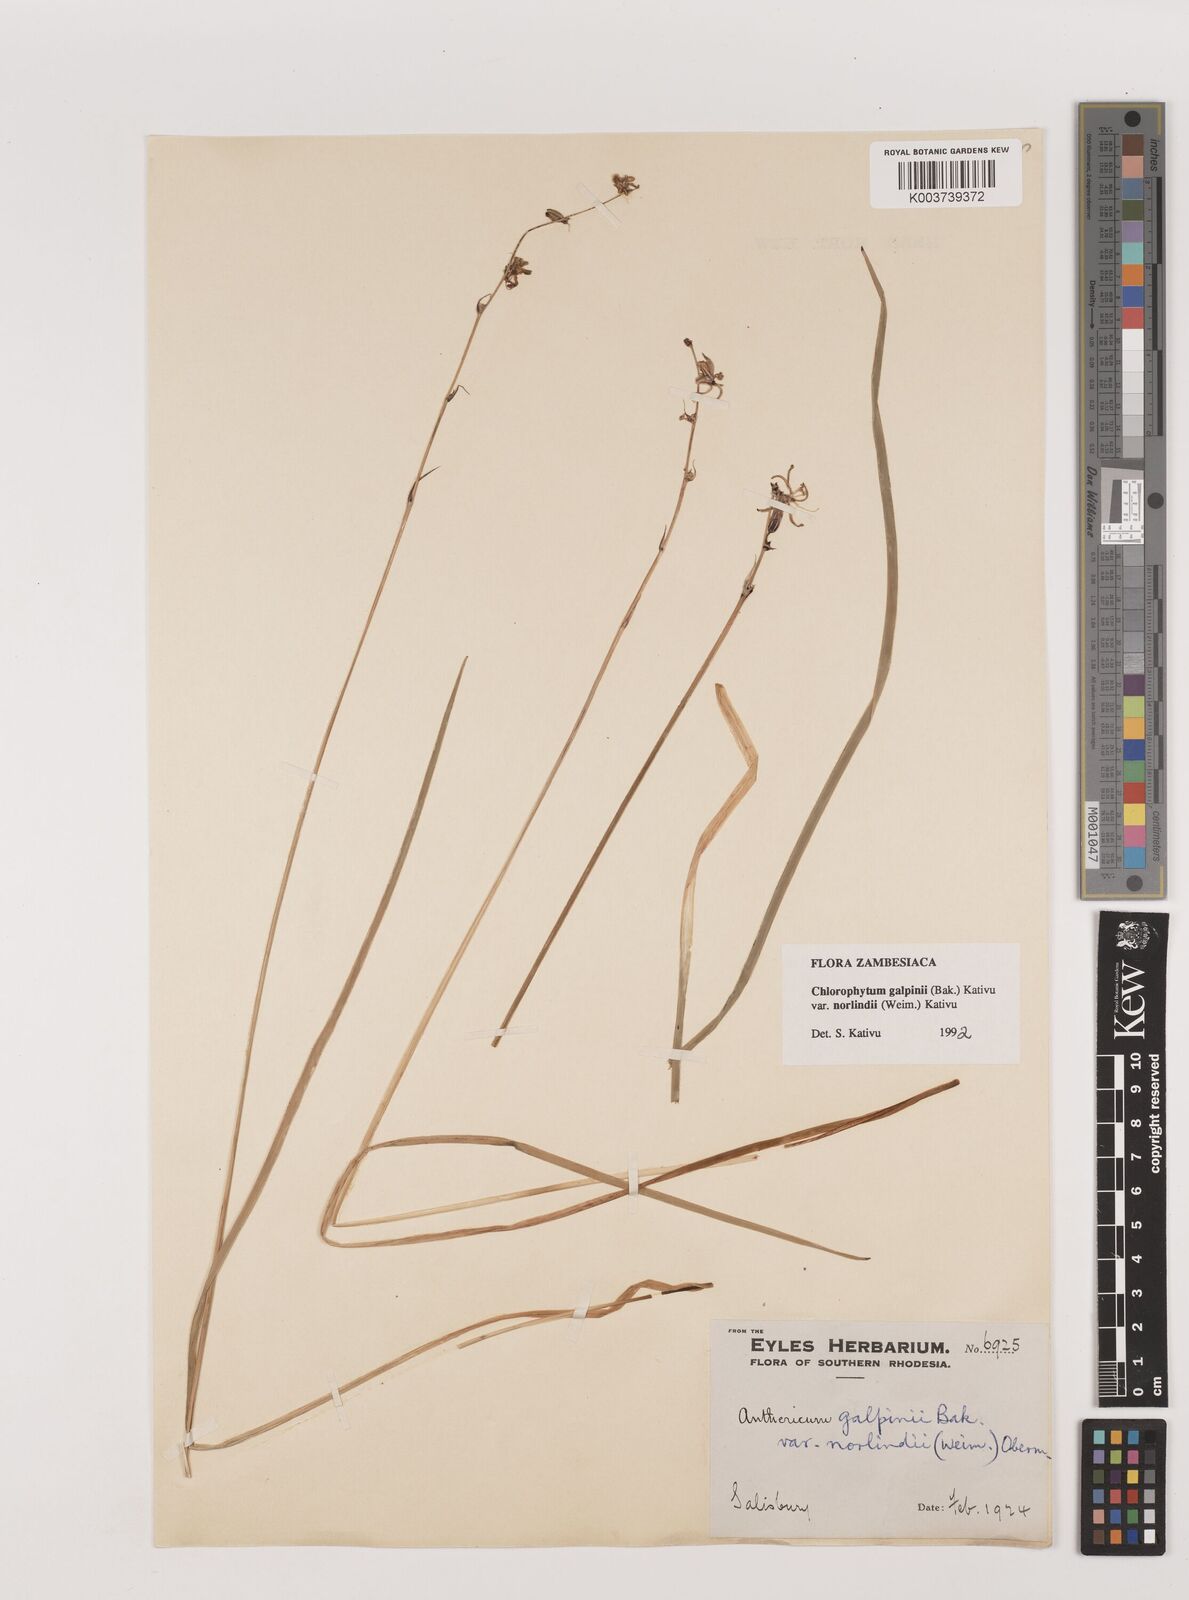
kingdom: Plantae
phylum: Tracheophyta
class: Liliopsida
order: Asparagales
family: Asparagaceae
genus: Chlorophytum
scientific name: Chlorophytum galpinii
